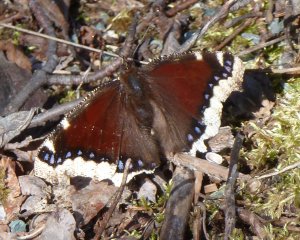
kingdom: Animalia
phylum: Arthropoda
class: Insecta
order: Lepidoptera
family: Nymphalidae
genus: Nymphalis
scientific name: Nymphalis antiopa
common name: Mourning Cloak
